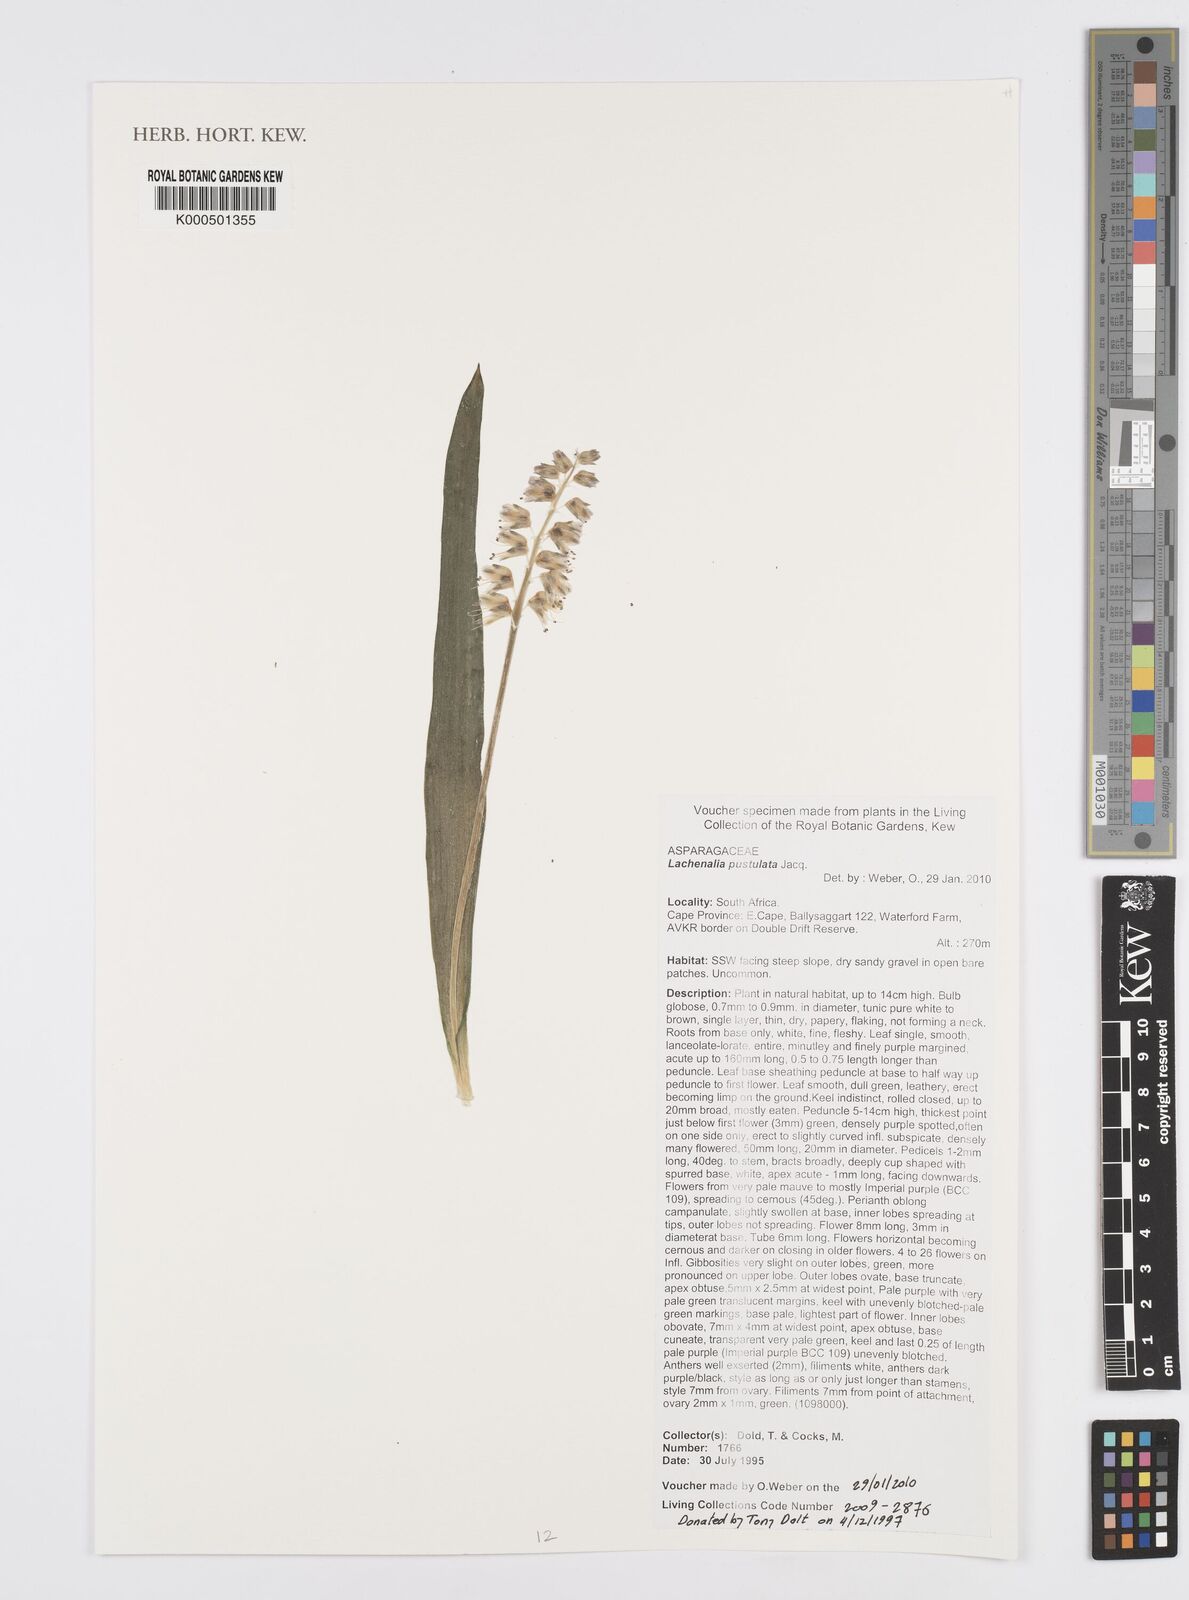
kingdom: Plantae
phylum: Tracheophyta
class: Liliopsida
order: Asparagales
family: Asparagaceae
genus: Lachenalia
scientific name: Lachenalia pallida
